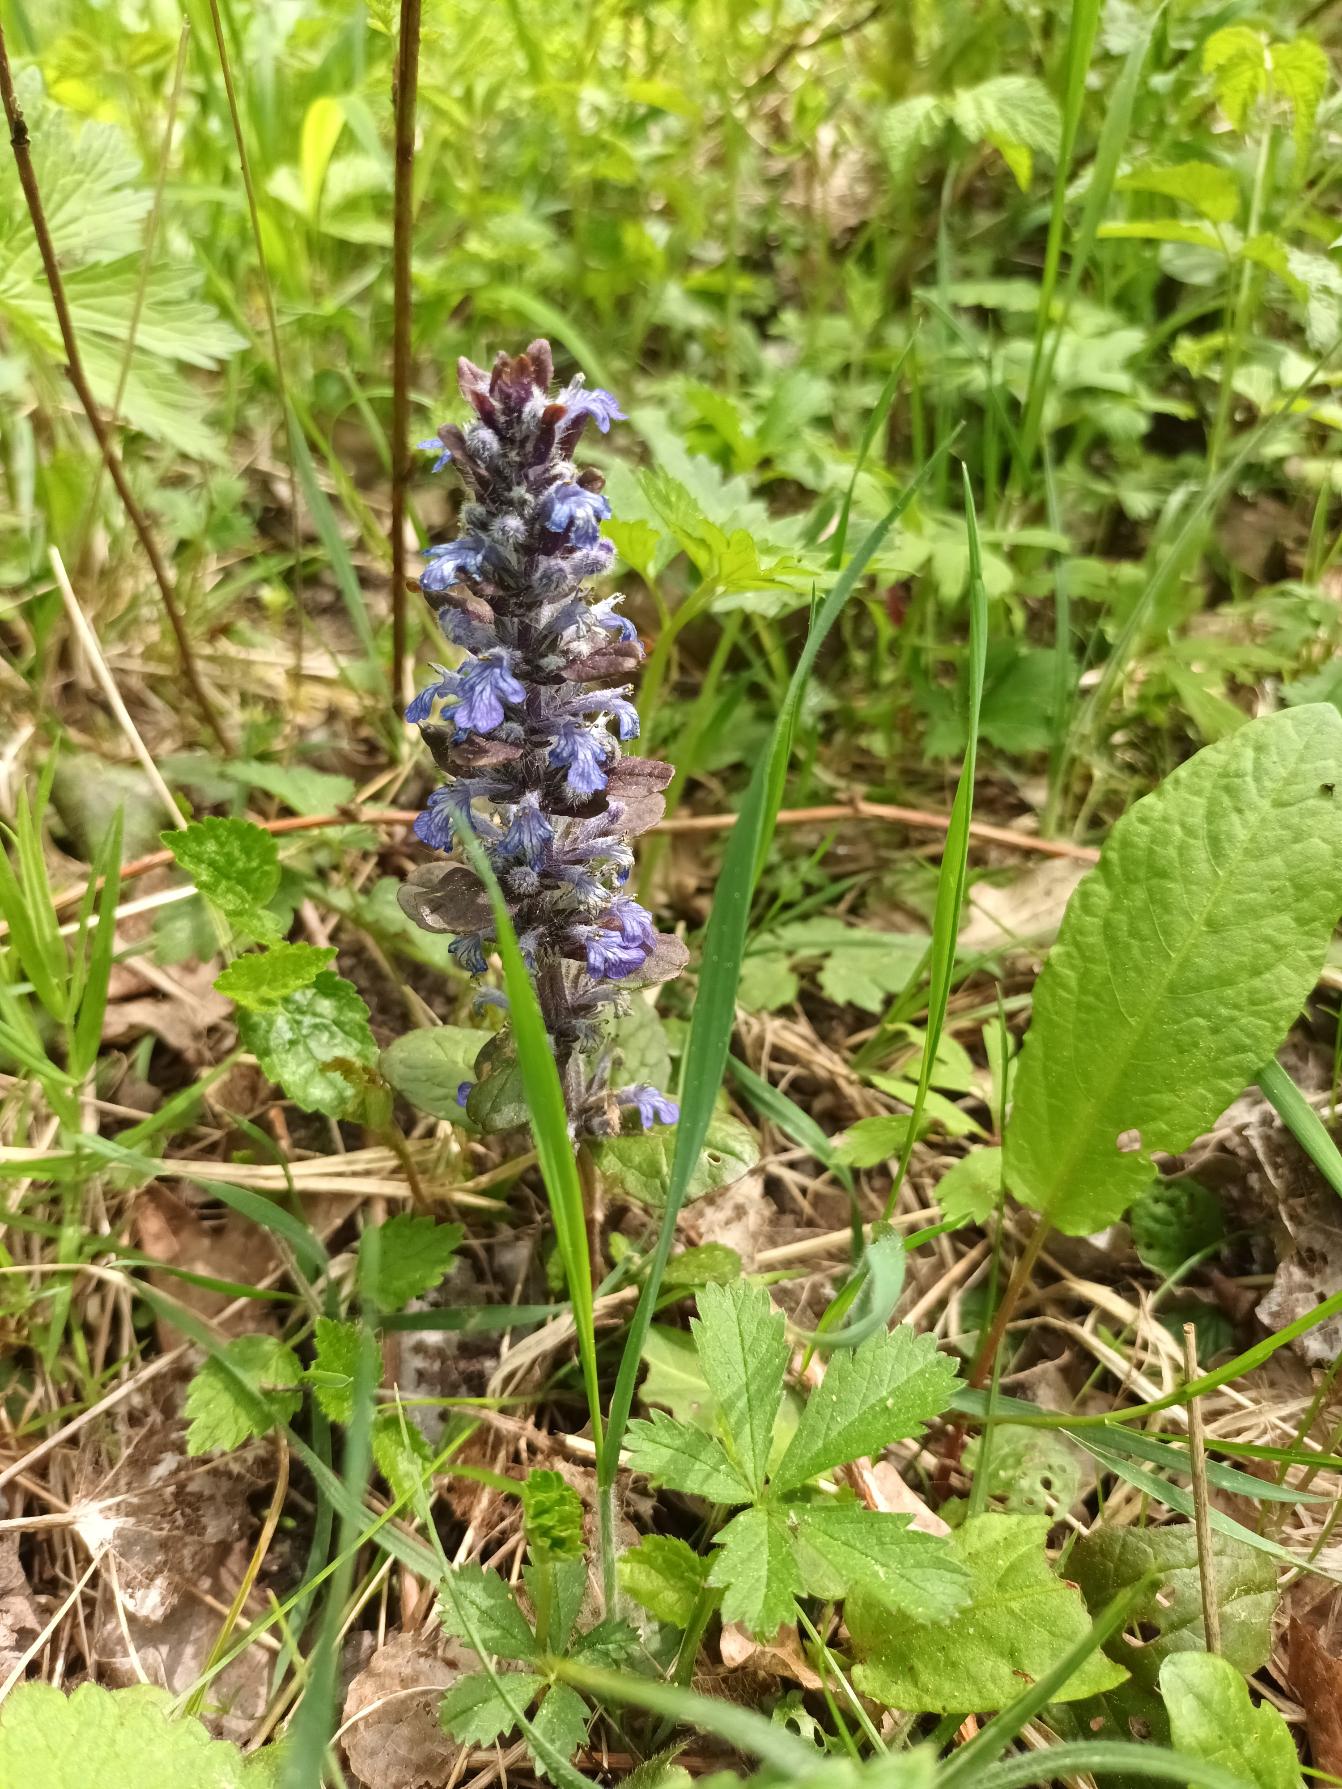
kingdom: Plantae
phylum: Tracheophyta
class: Magnoliopsida
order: Lamiales
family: Lamiaceae
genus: Ajuga
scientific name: Ajuga reptans
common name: Krybende læbeløs
